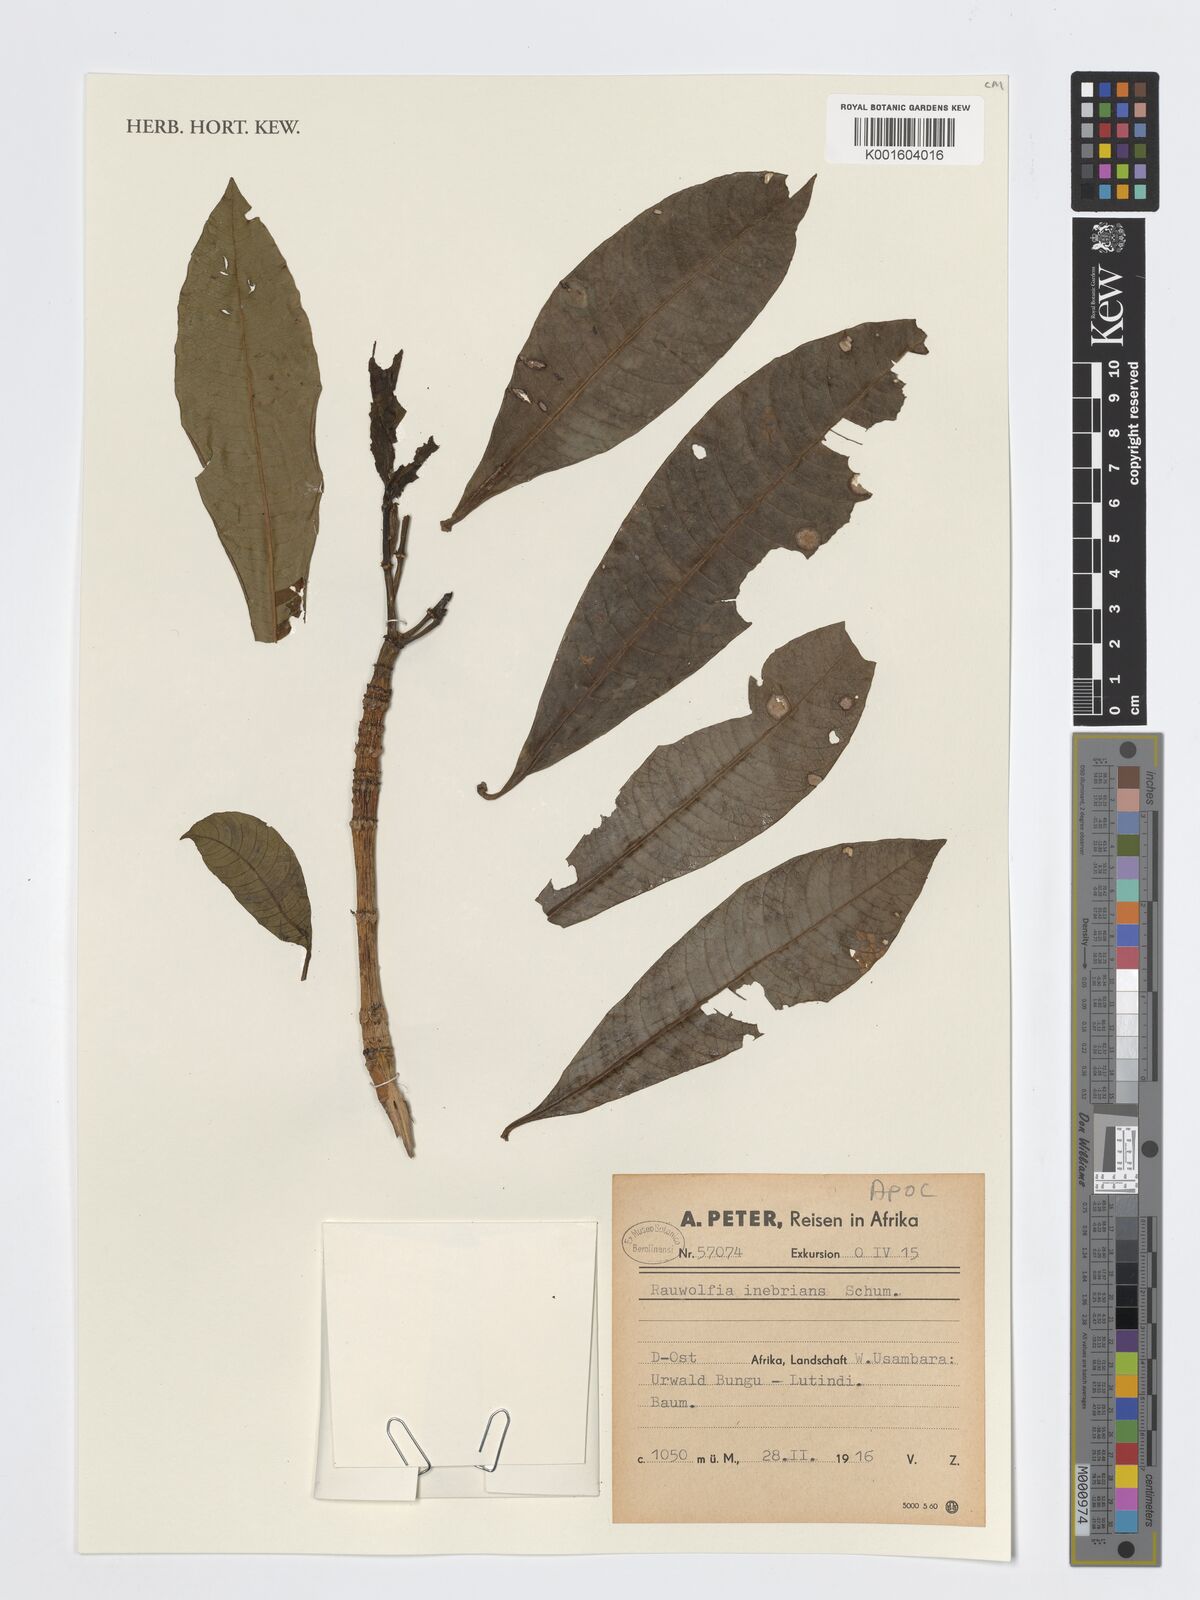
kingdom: Plantae
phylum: Tracheophyta
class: Magnoliopsida
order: Gentianales
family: Apocynaceae
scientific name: Apocynaceae
